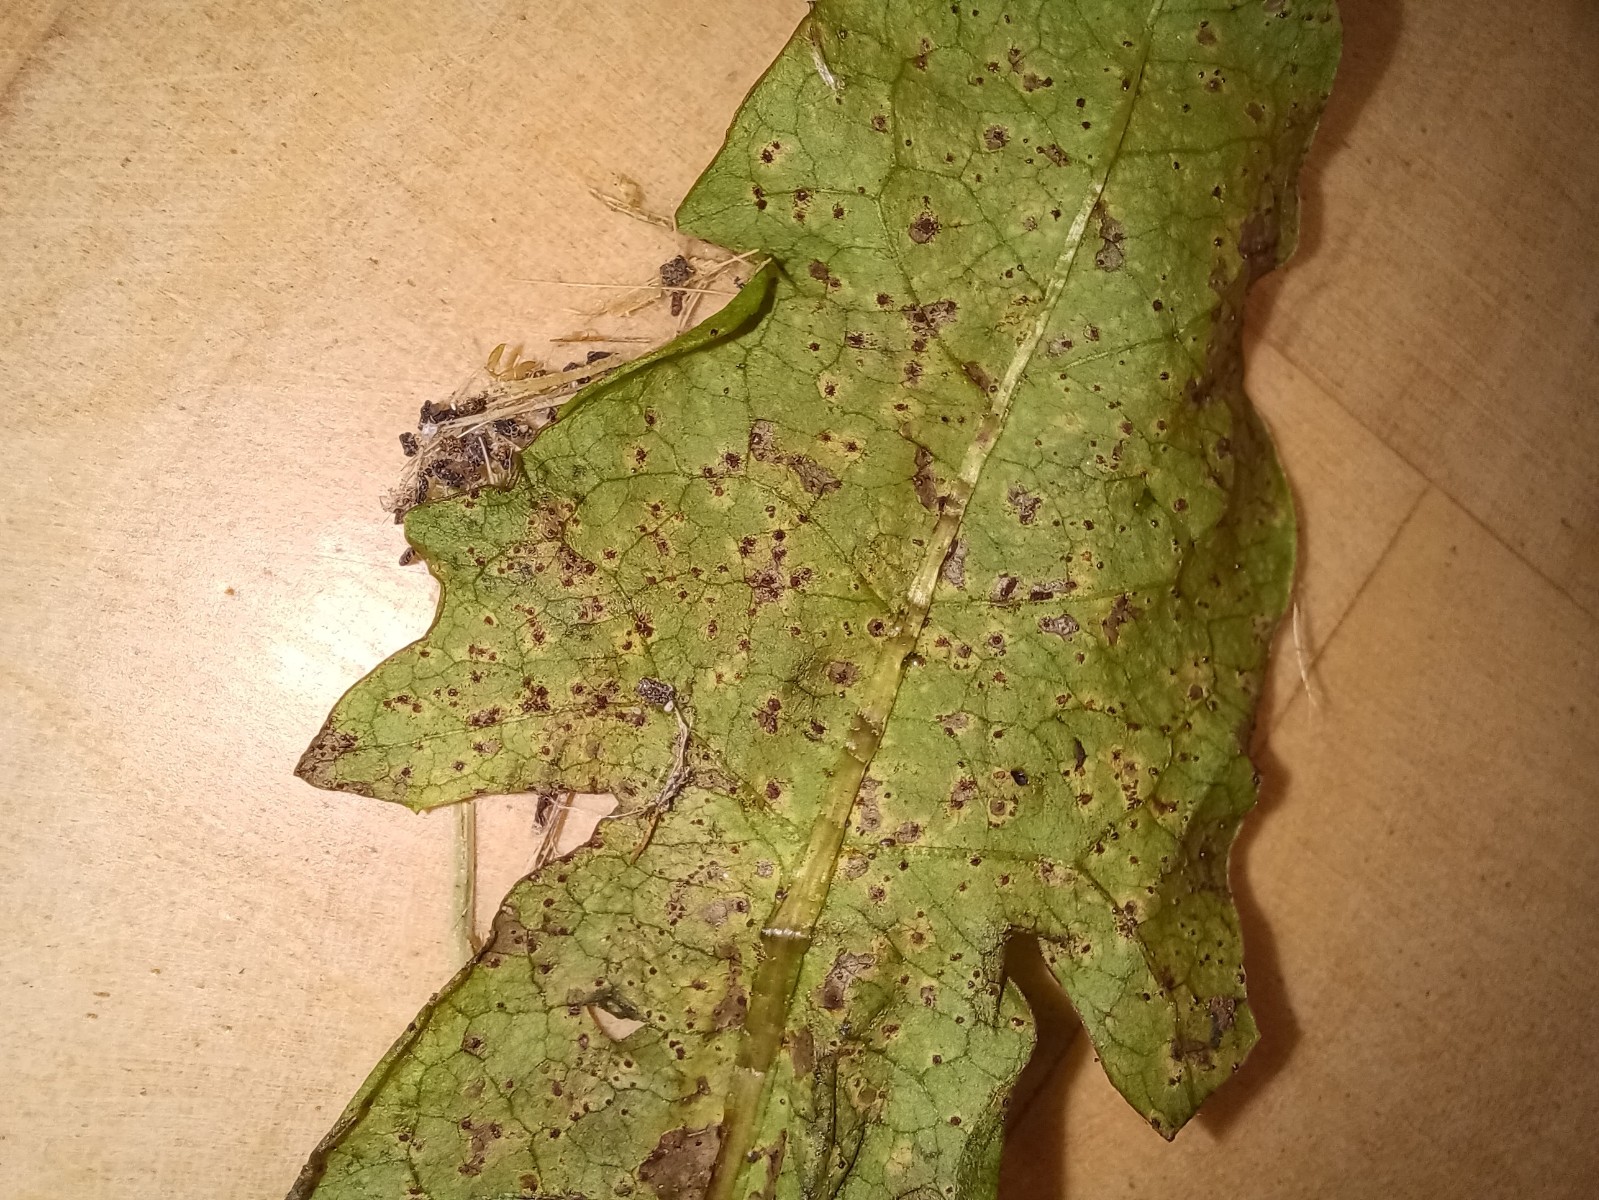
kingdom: Fungi
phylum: Basidiomycota
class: Pucciniomycetes
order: Pucciniales
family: Pucciniaceae
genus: Puccinia
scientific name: Puccinia
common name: tvecellerust
